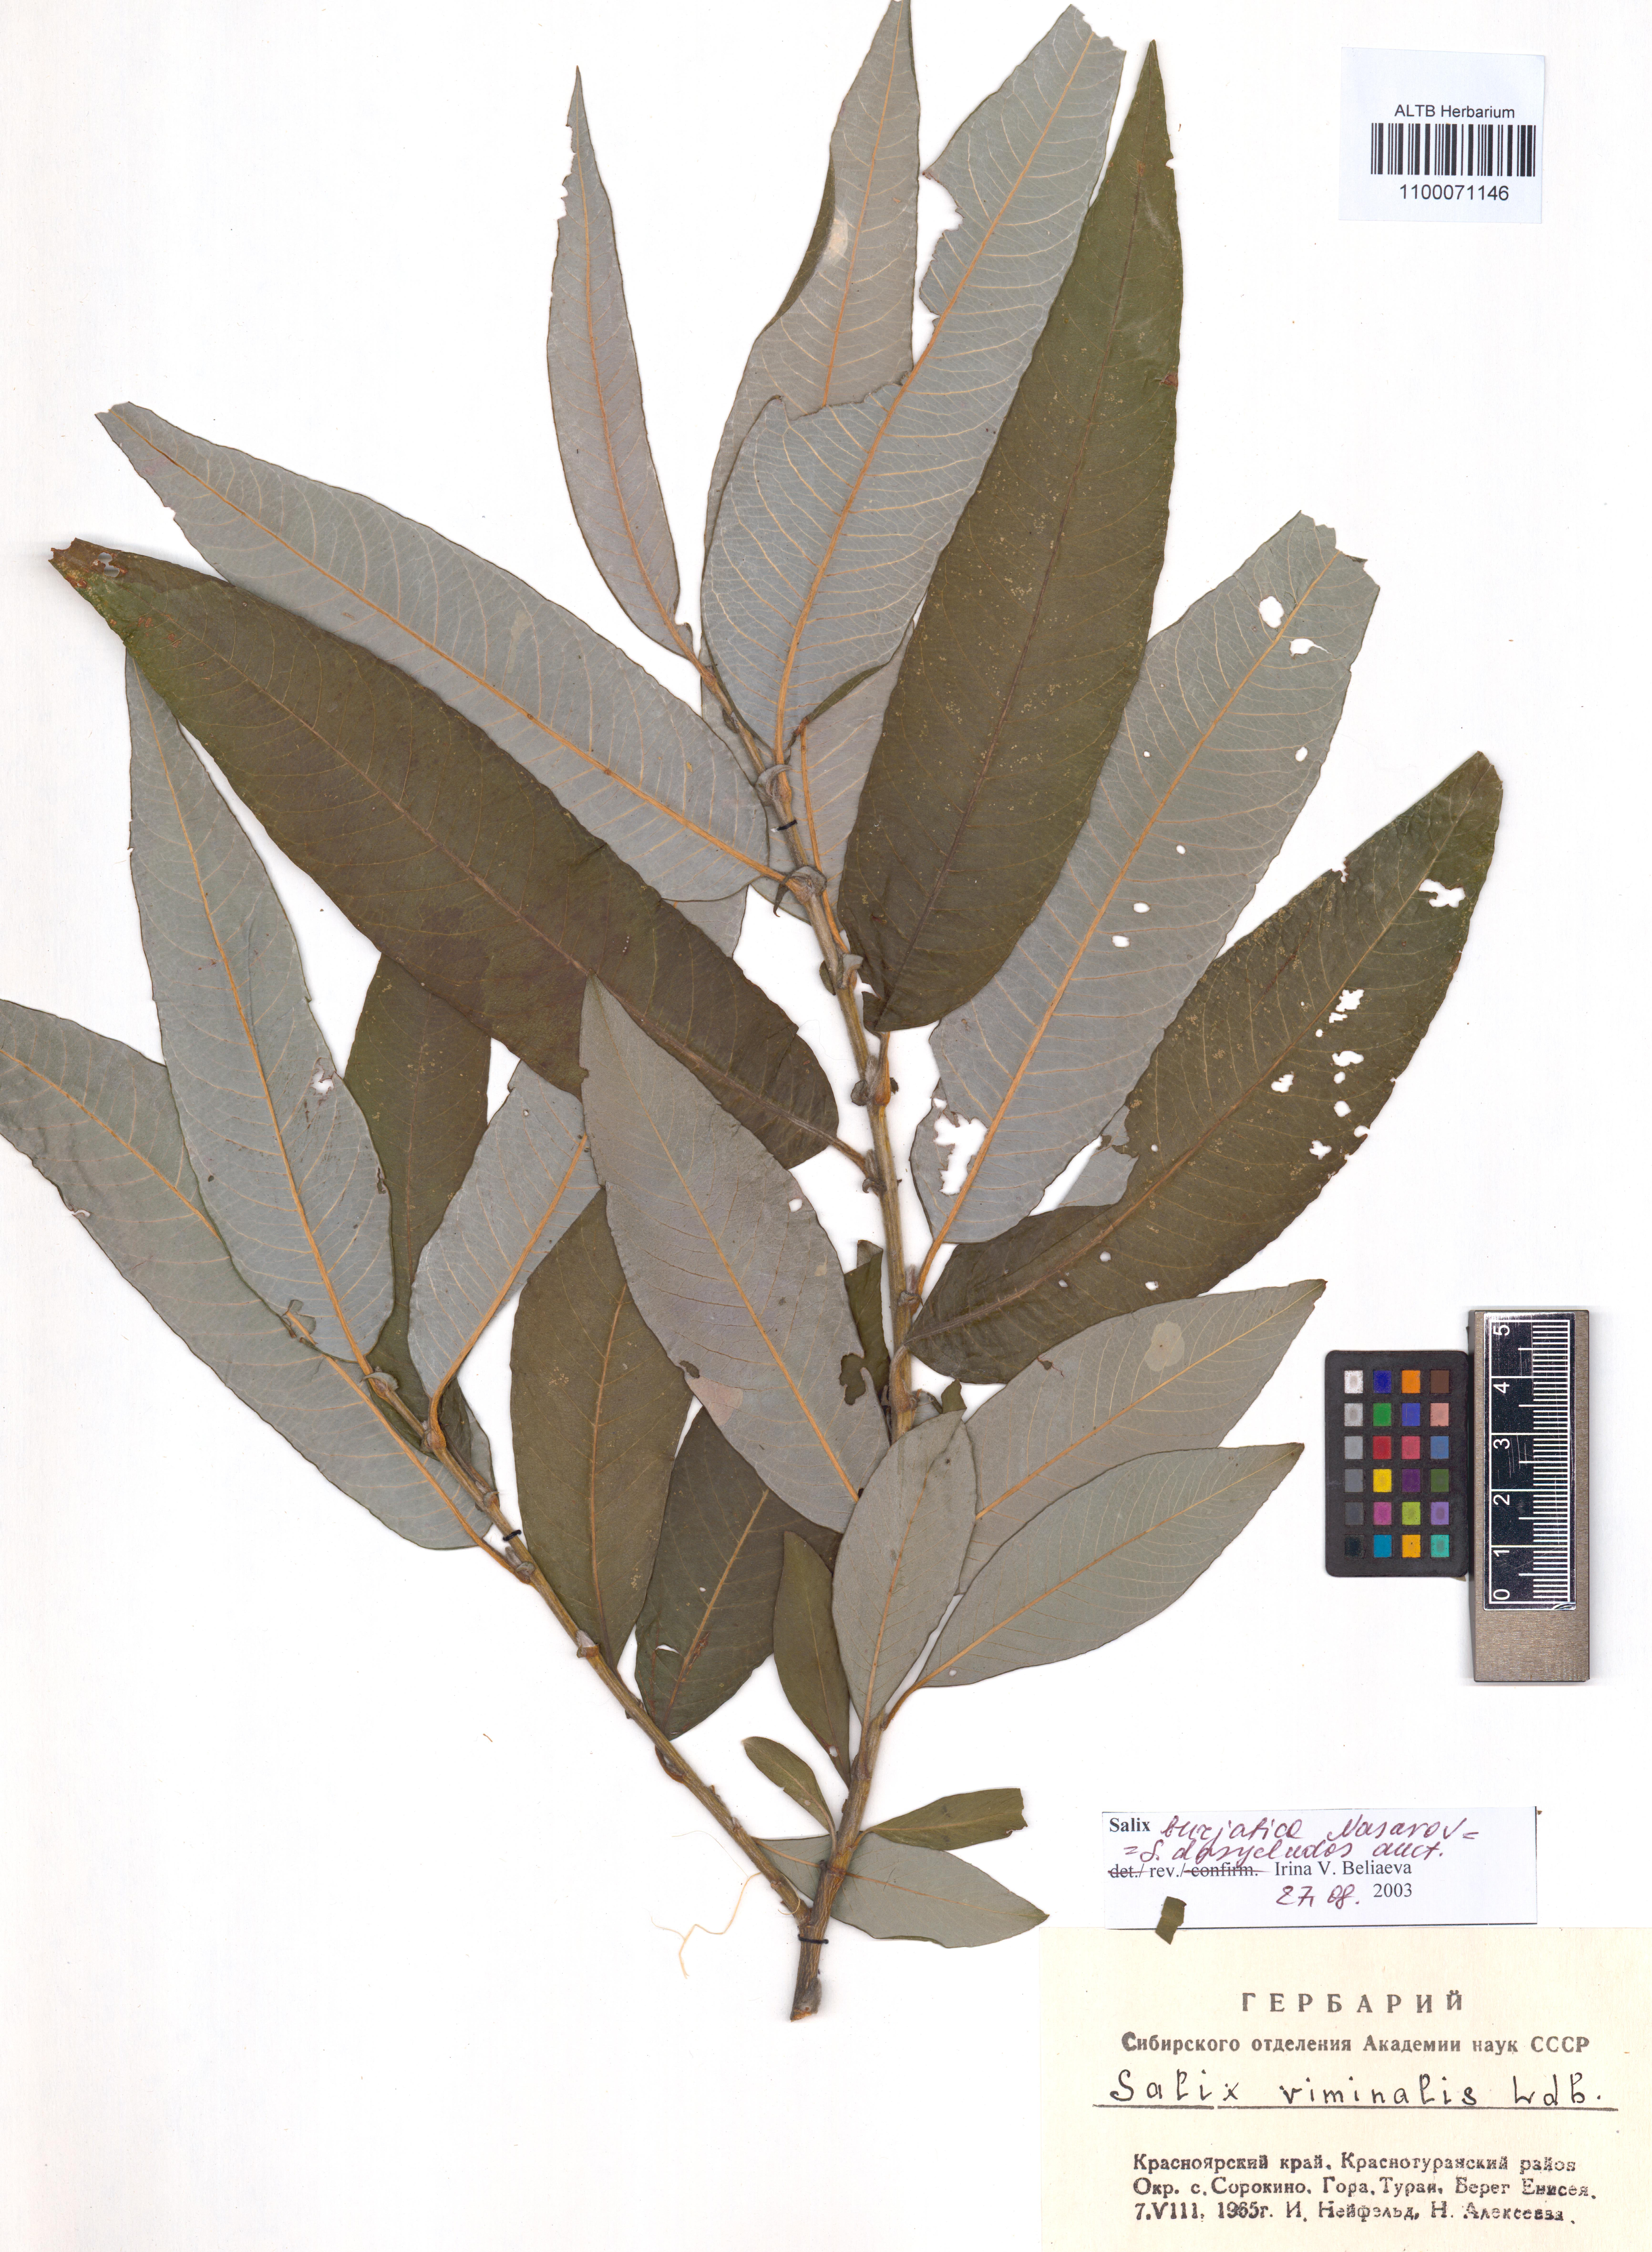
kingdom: Plantae
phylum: Tracheophyta
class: Magnoliopsida
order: Malpighiales
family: Salicaceae
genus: Salix
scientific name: Salix gmelinii
